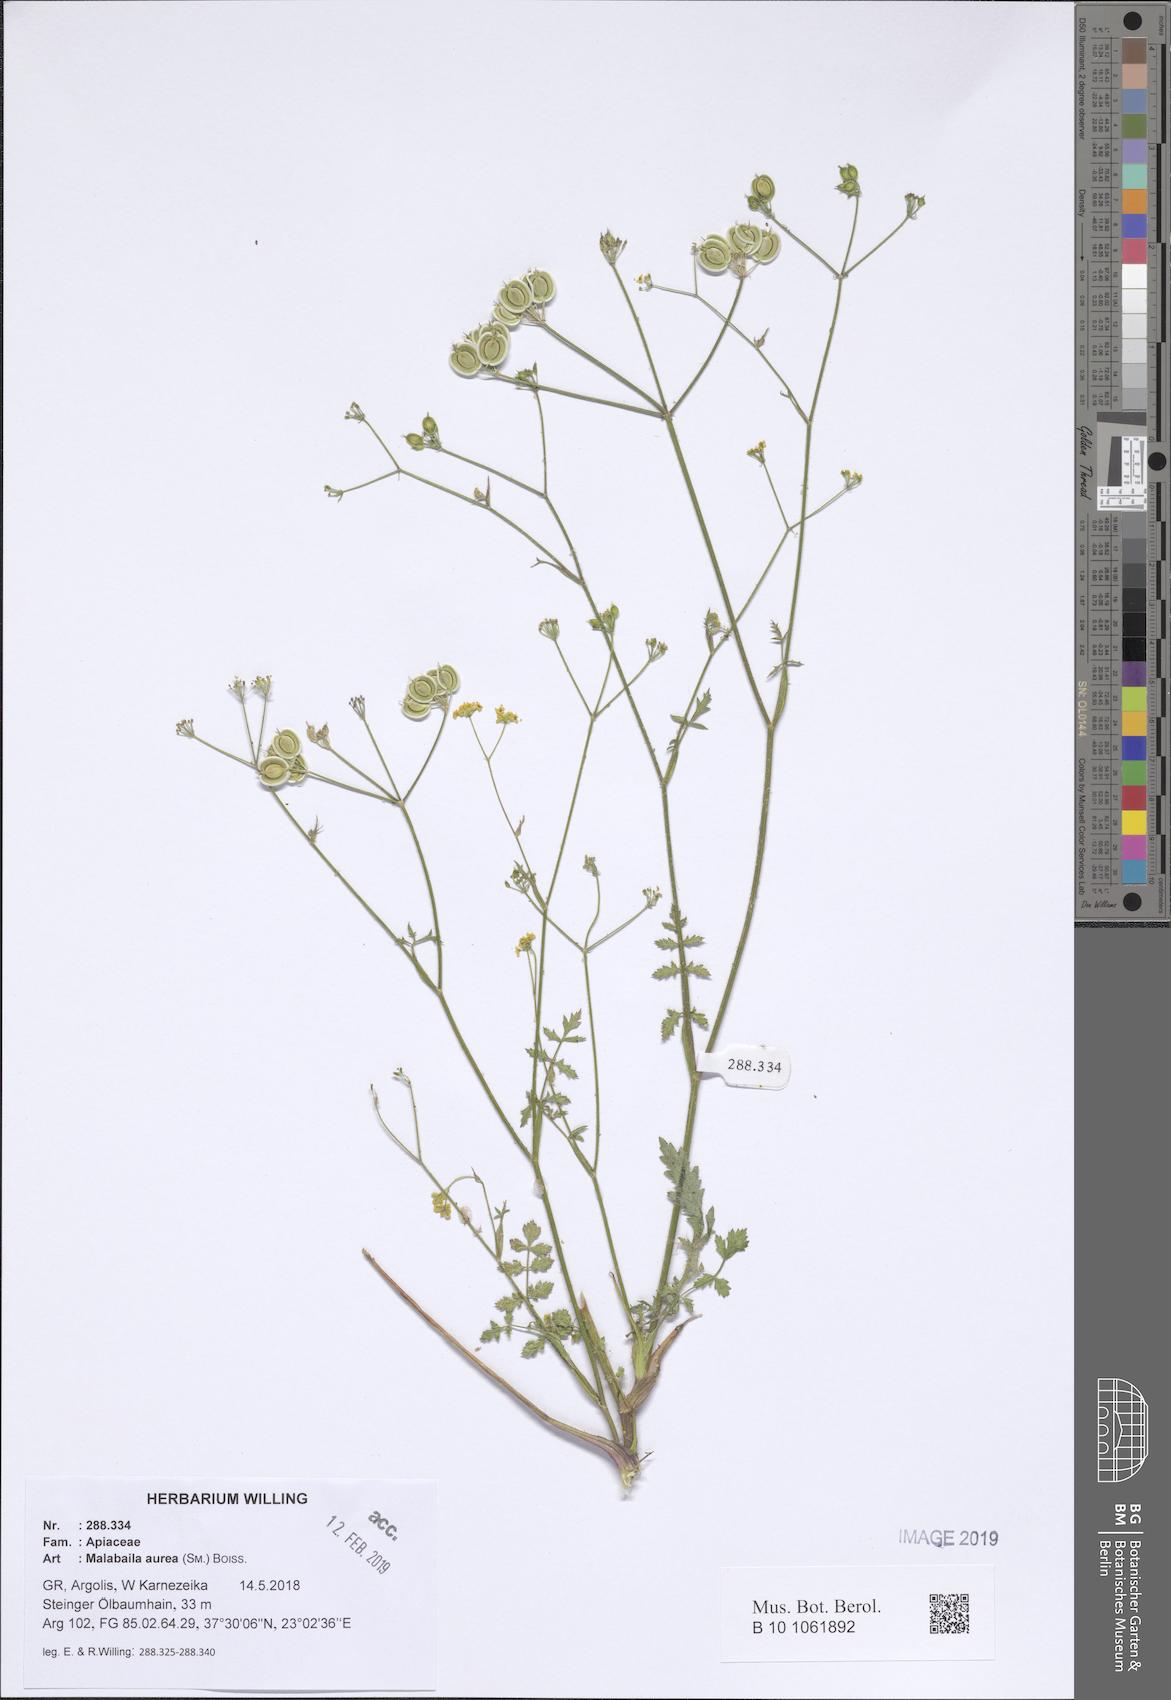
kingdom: Plantae
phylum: Tracheophyta
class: Magnoliopsida
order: Apiales
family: Apiaceae
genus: Leiotulus
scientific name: Leiotulus aureus
